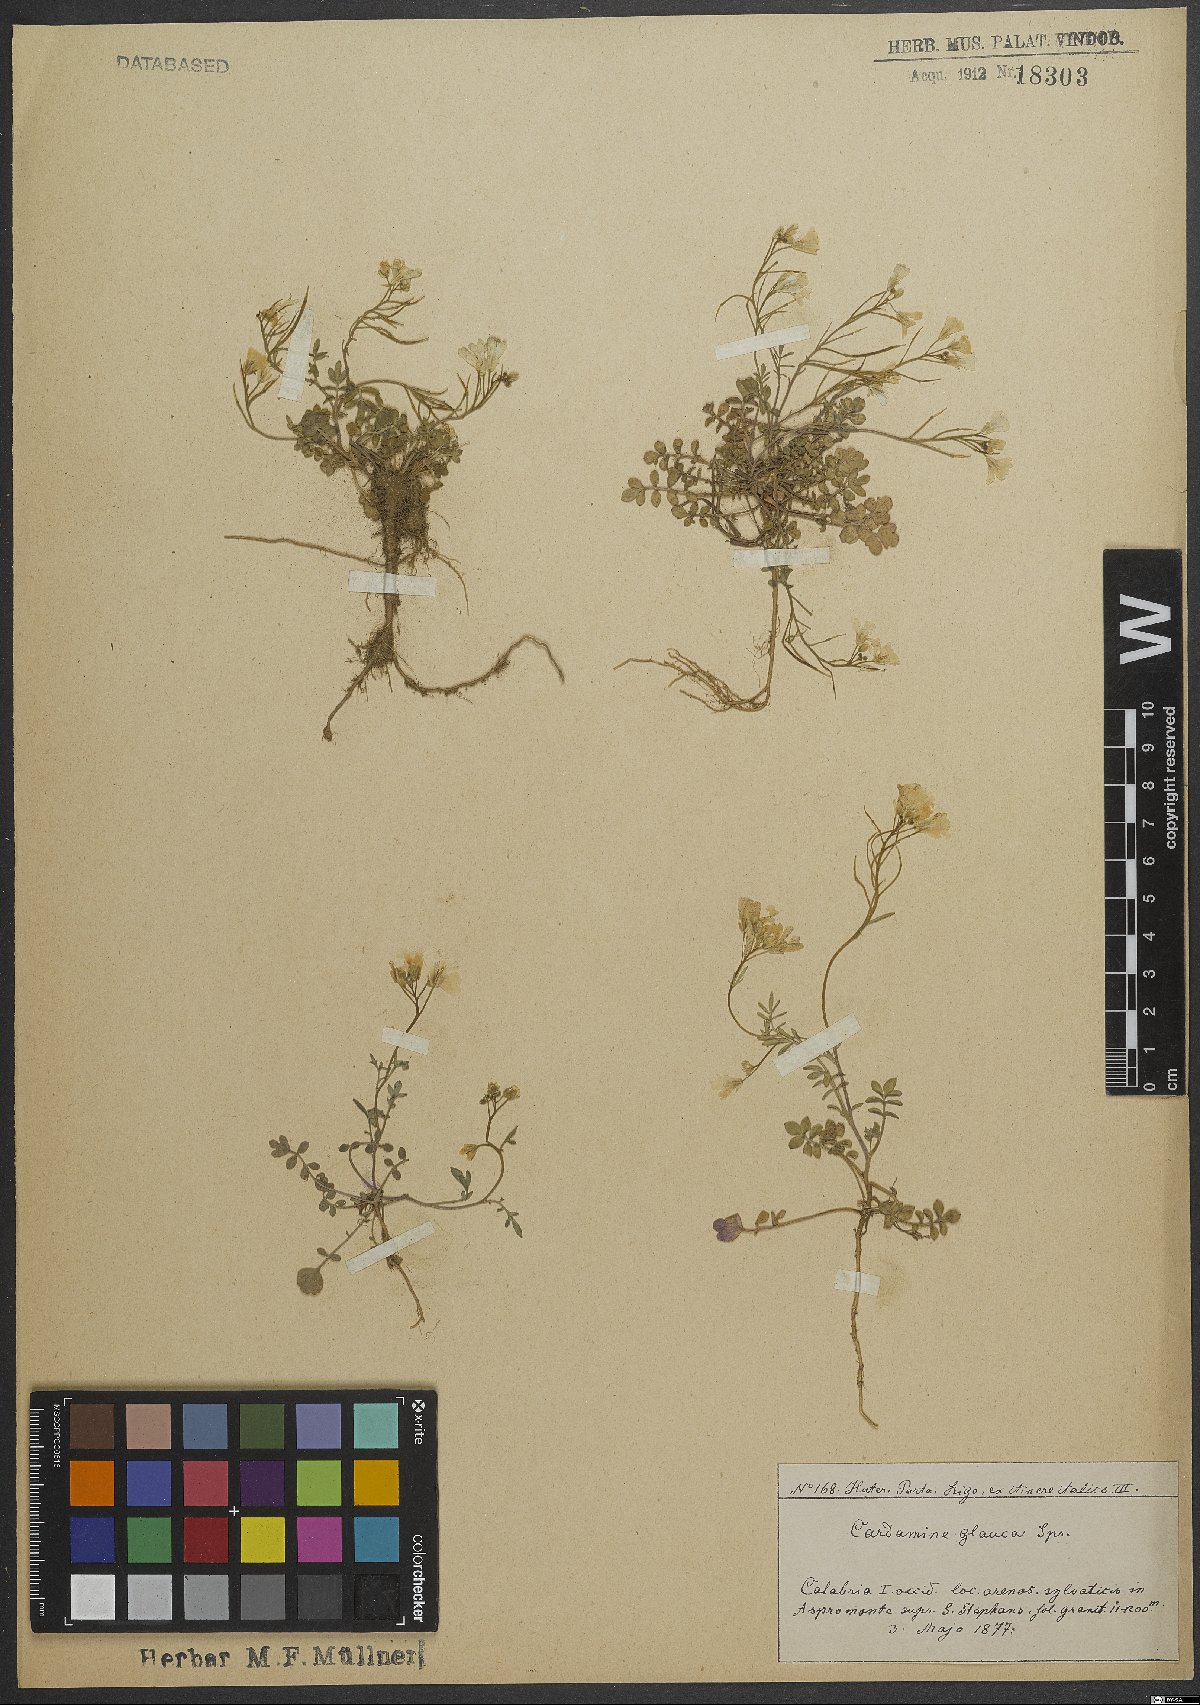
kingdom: Plantae
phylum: Tracheophyta
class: Magnoliopsida
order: Brassicales
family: Brassicaceae
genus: Cardamine
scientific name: Cardamine glauca
